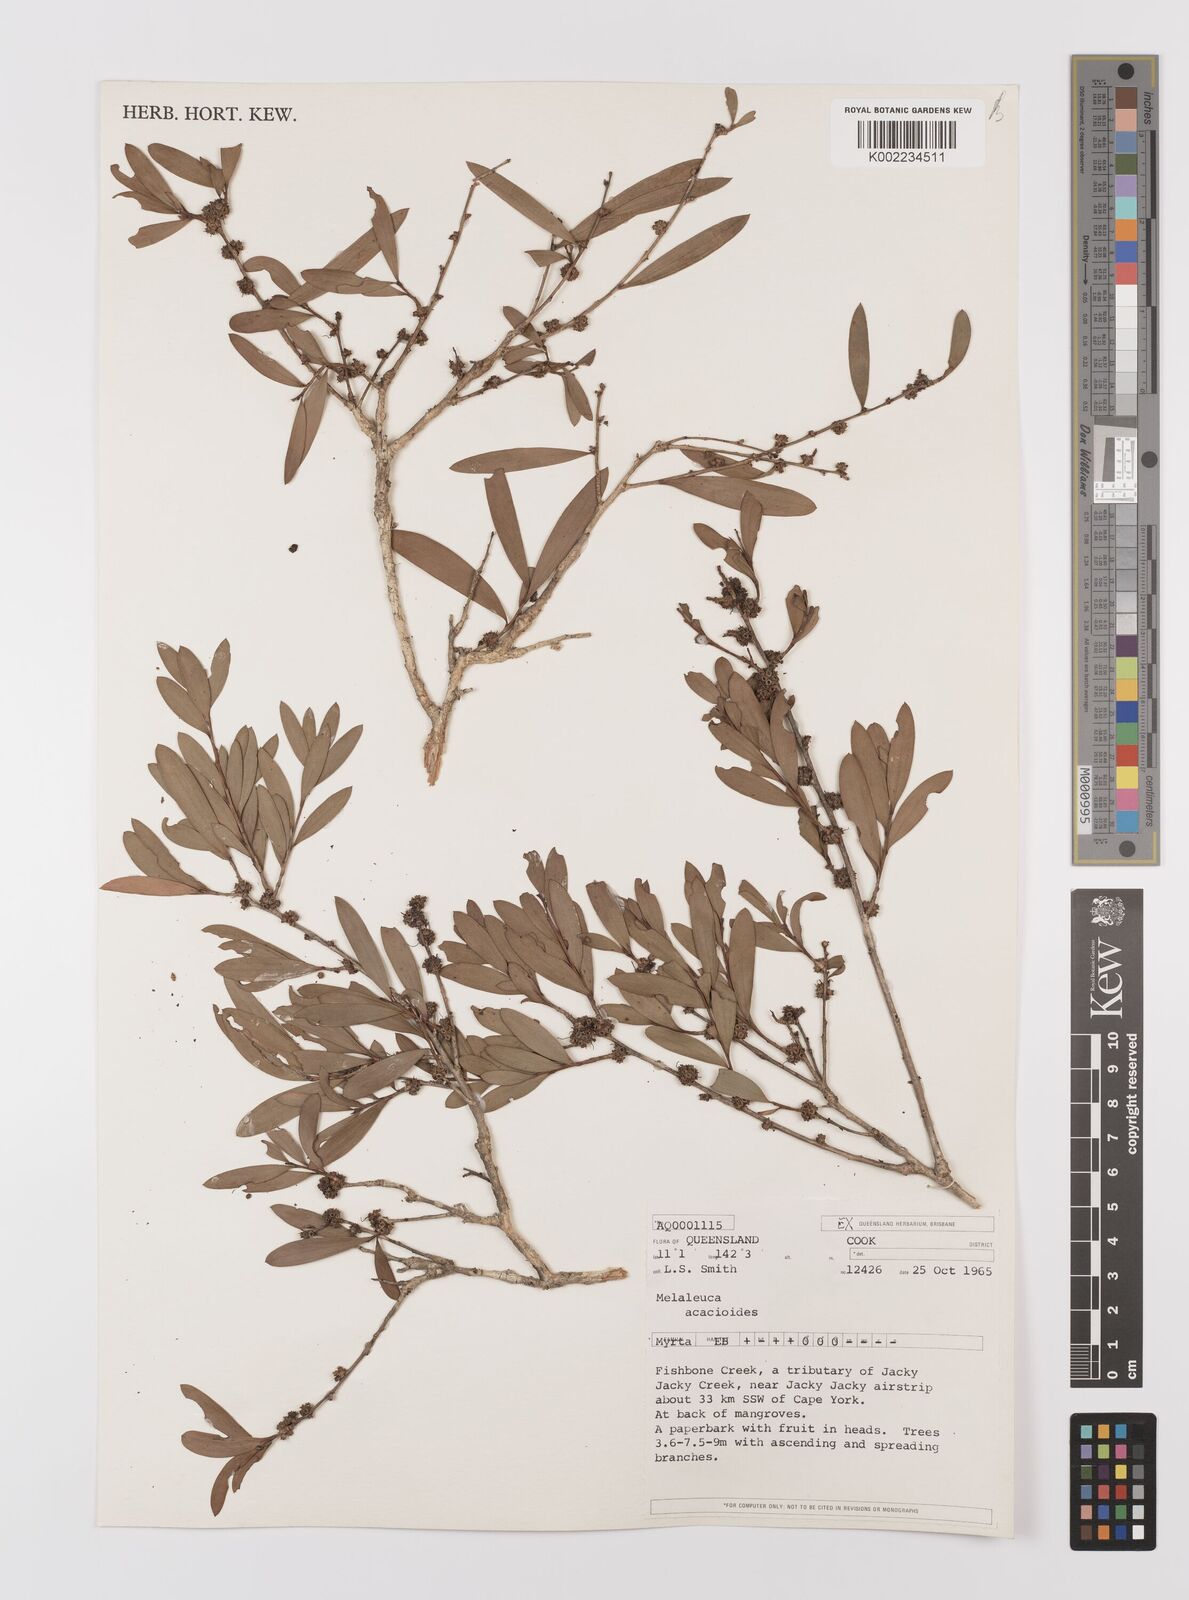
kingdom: Plantae
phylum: Tracheophyta
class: Magnoliopsida
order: Myrtales
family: Myrtaceae
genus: Melaleuca
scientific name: Melaleuca citrolens
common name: Lemon-scented paperbark
